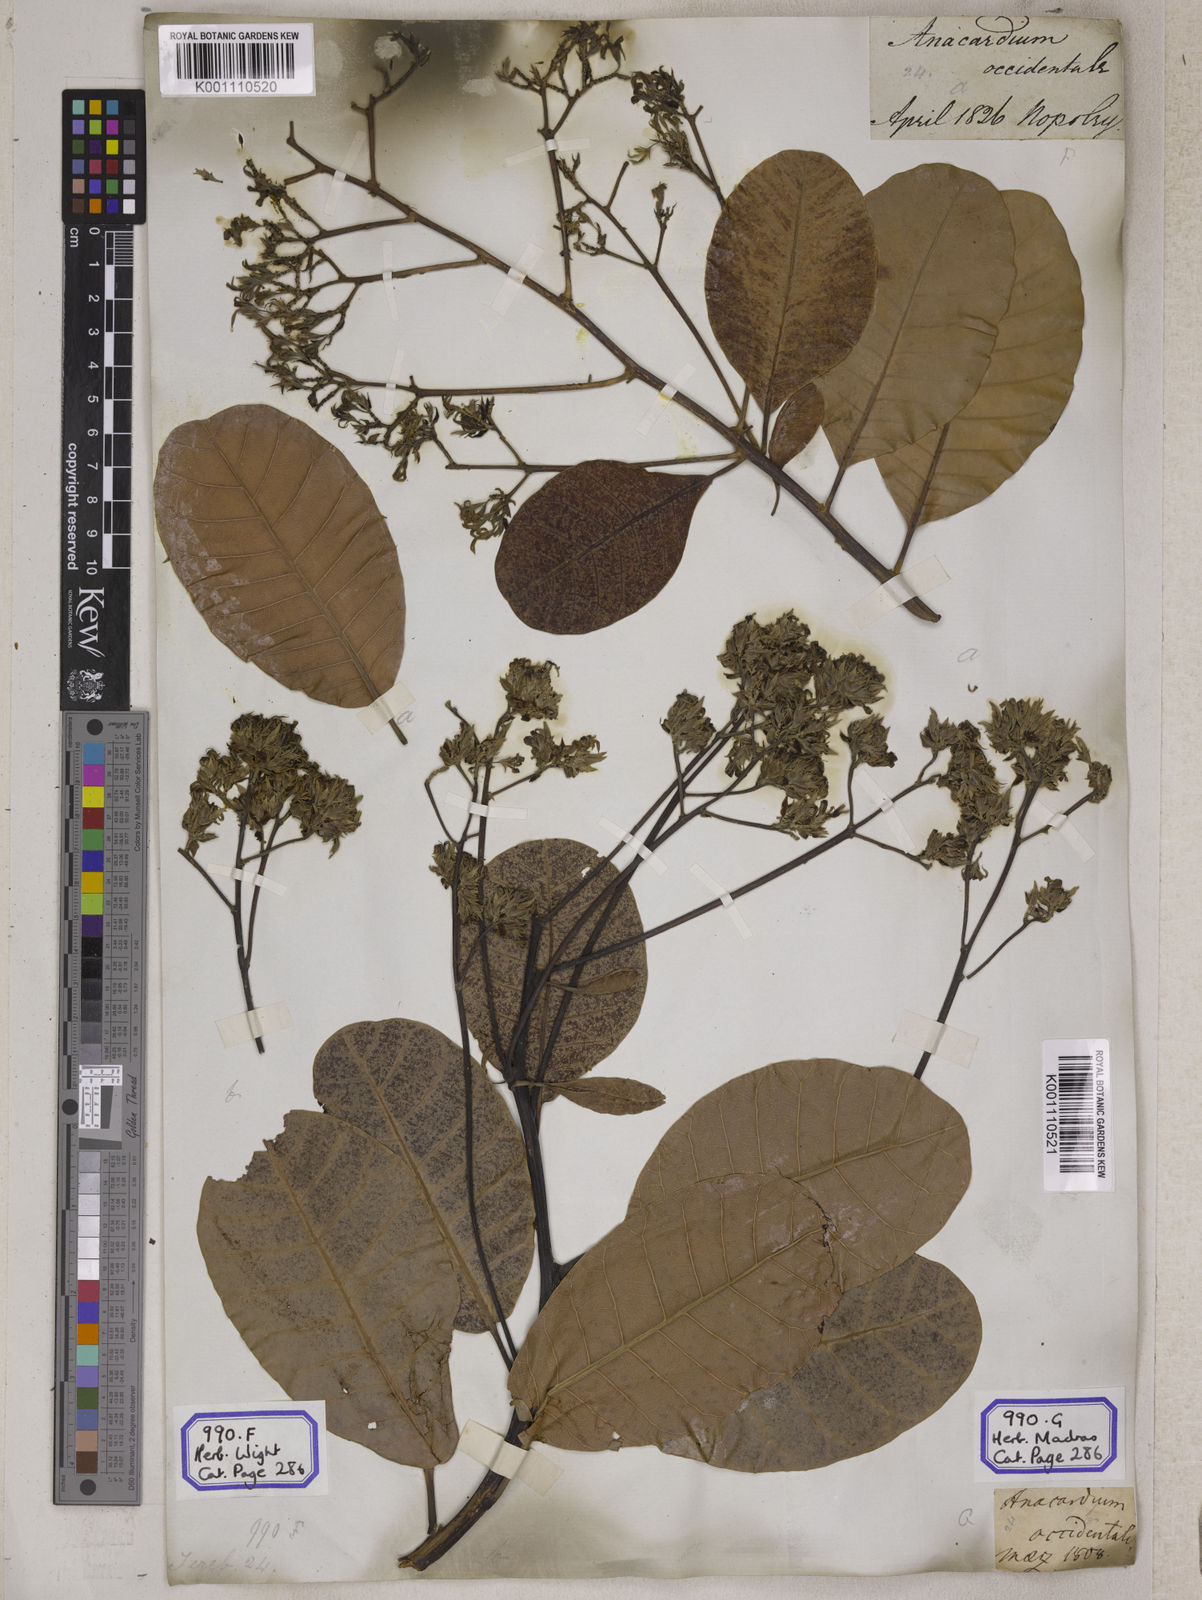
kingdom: Plantae
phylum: Tracheophyta
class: Magnoliopsida
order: Sapindales
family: Anacardiaceae
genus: Anacardium
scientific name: Anacardium occidentale
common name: Cashew
